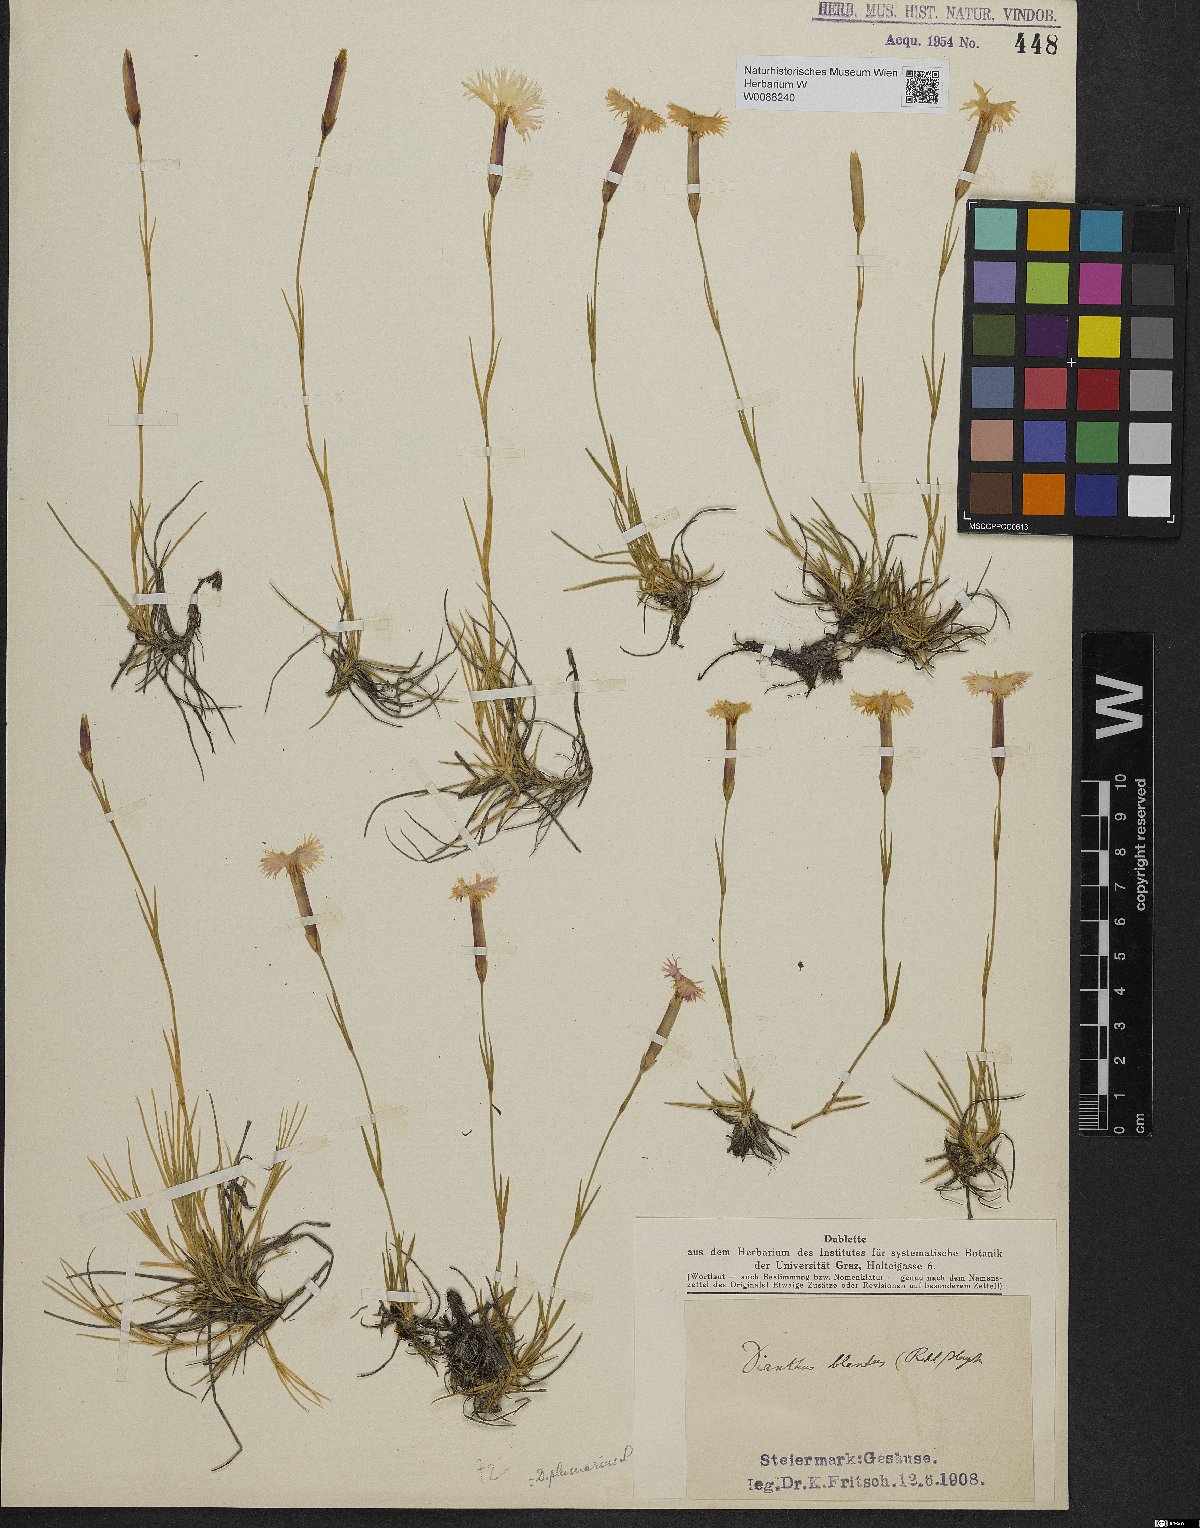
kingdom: Plantae
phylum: Tracheophyta
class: Magnoliopsida
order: Caryophyllales
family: Caryophyllaceae
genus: Dianthus
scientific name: Dianthus plumarius
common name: Pink
